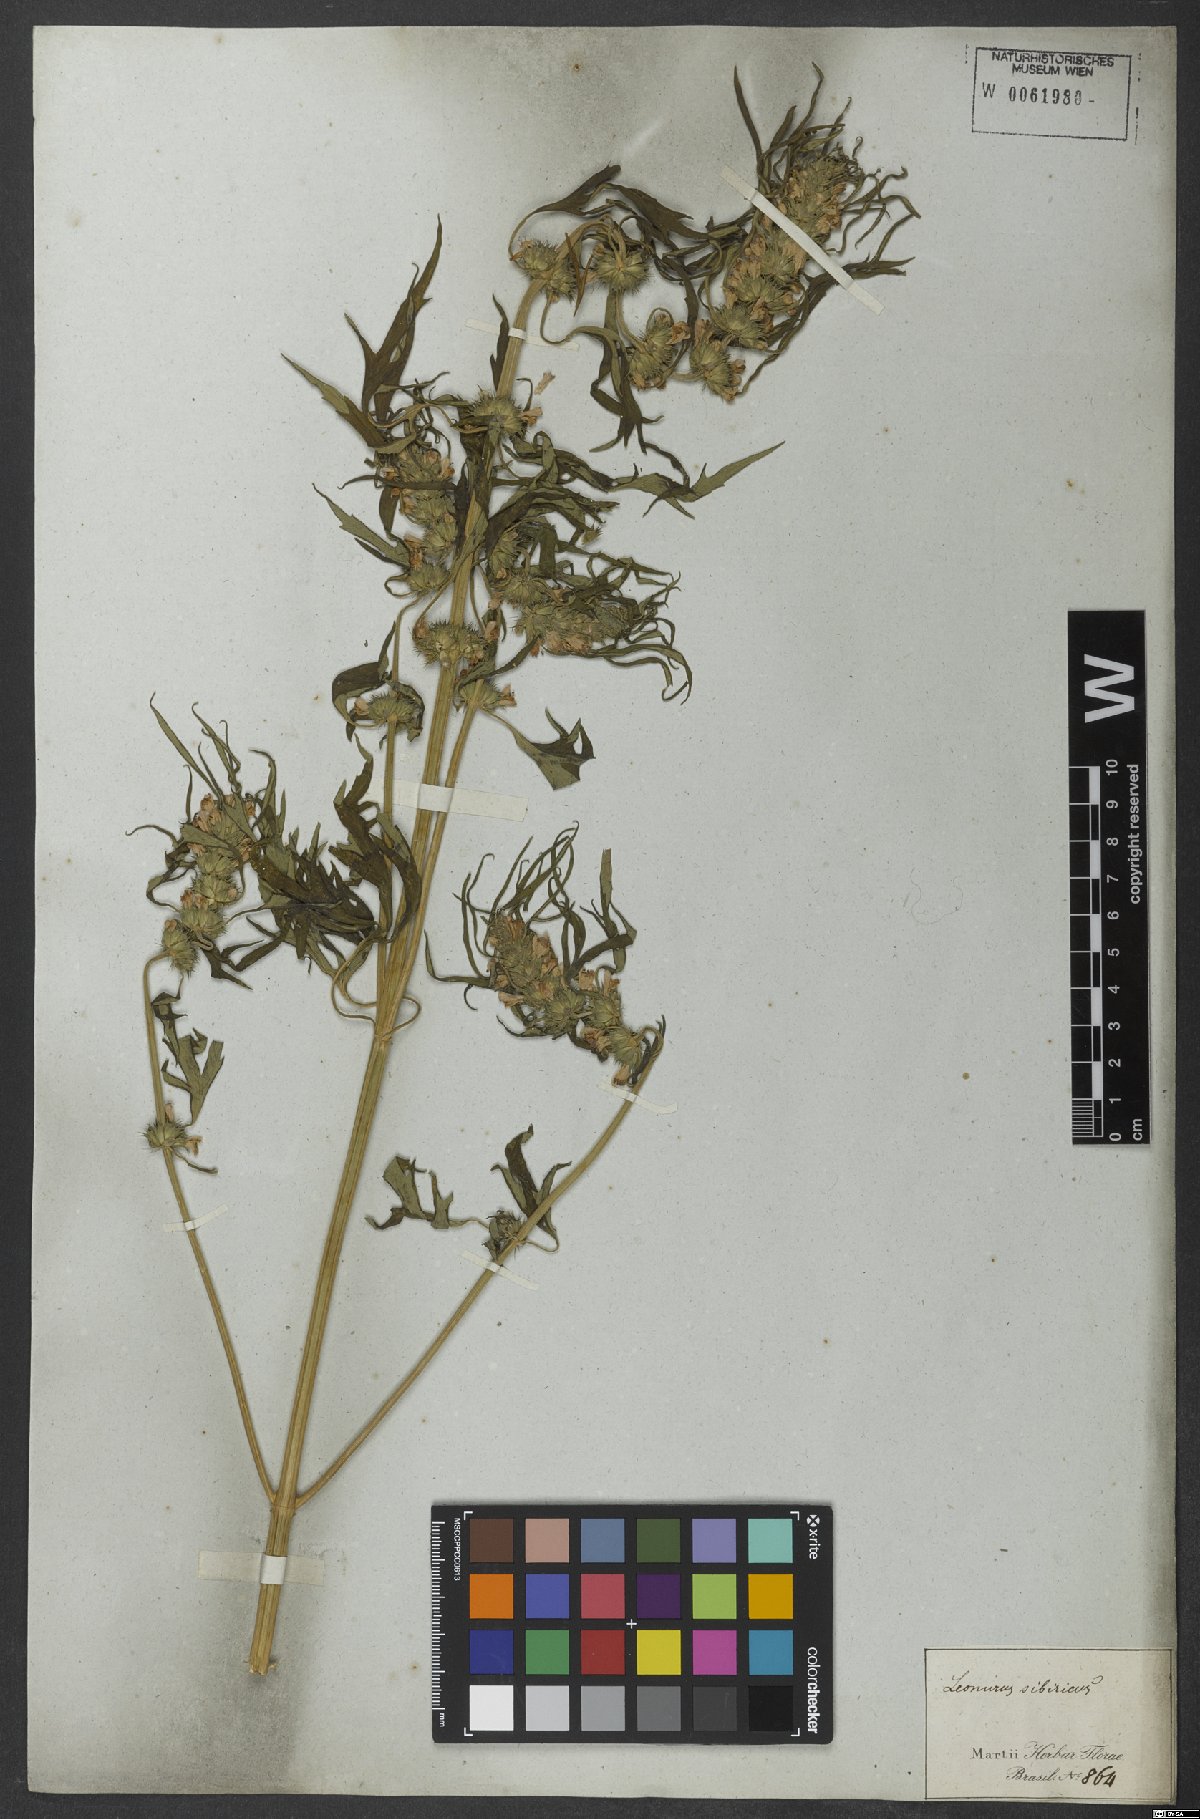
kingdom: Plantae
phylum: Tracheophyta
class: Magnoliopsida
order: Lamiales
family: Lamiaceae
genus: Leonurus
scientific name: Leonurus sibiricus
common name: Honeyweed
